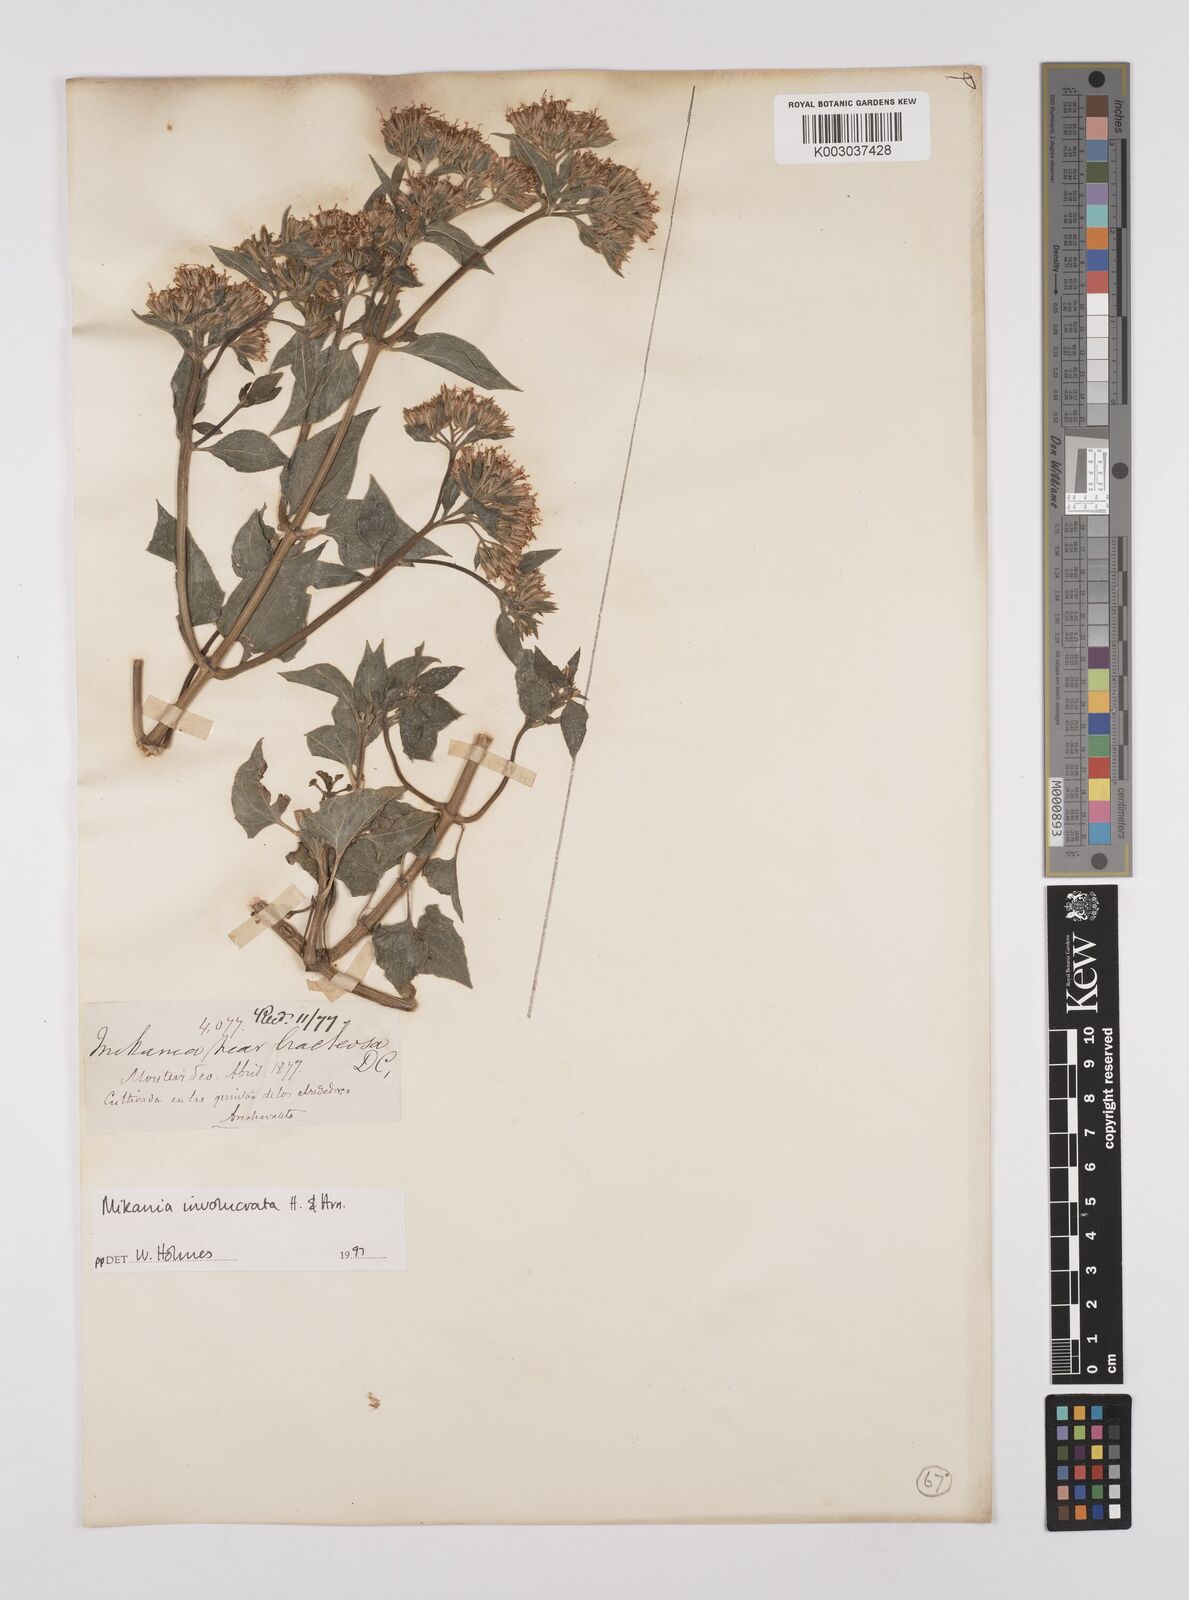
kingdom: Plantae
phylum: Tracheophyta
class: Magnoliopsida
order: Asterales
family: Asteraceae
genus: Mikania
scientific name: Mikania involucrata
